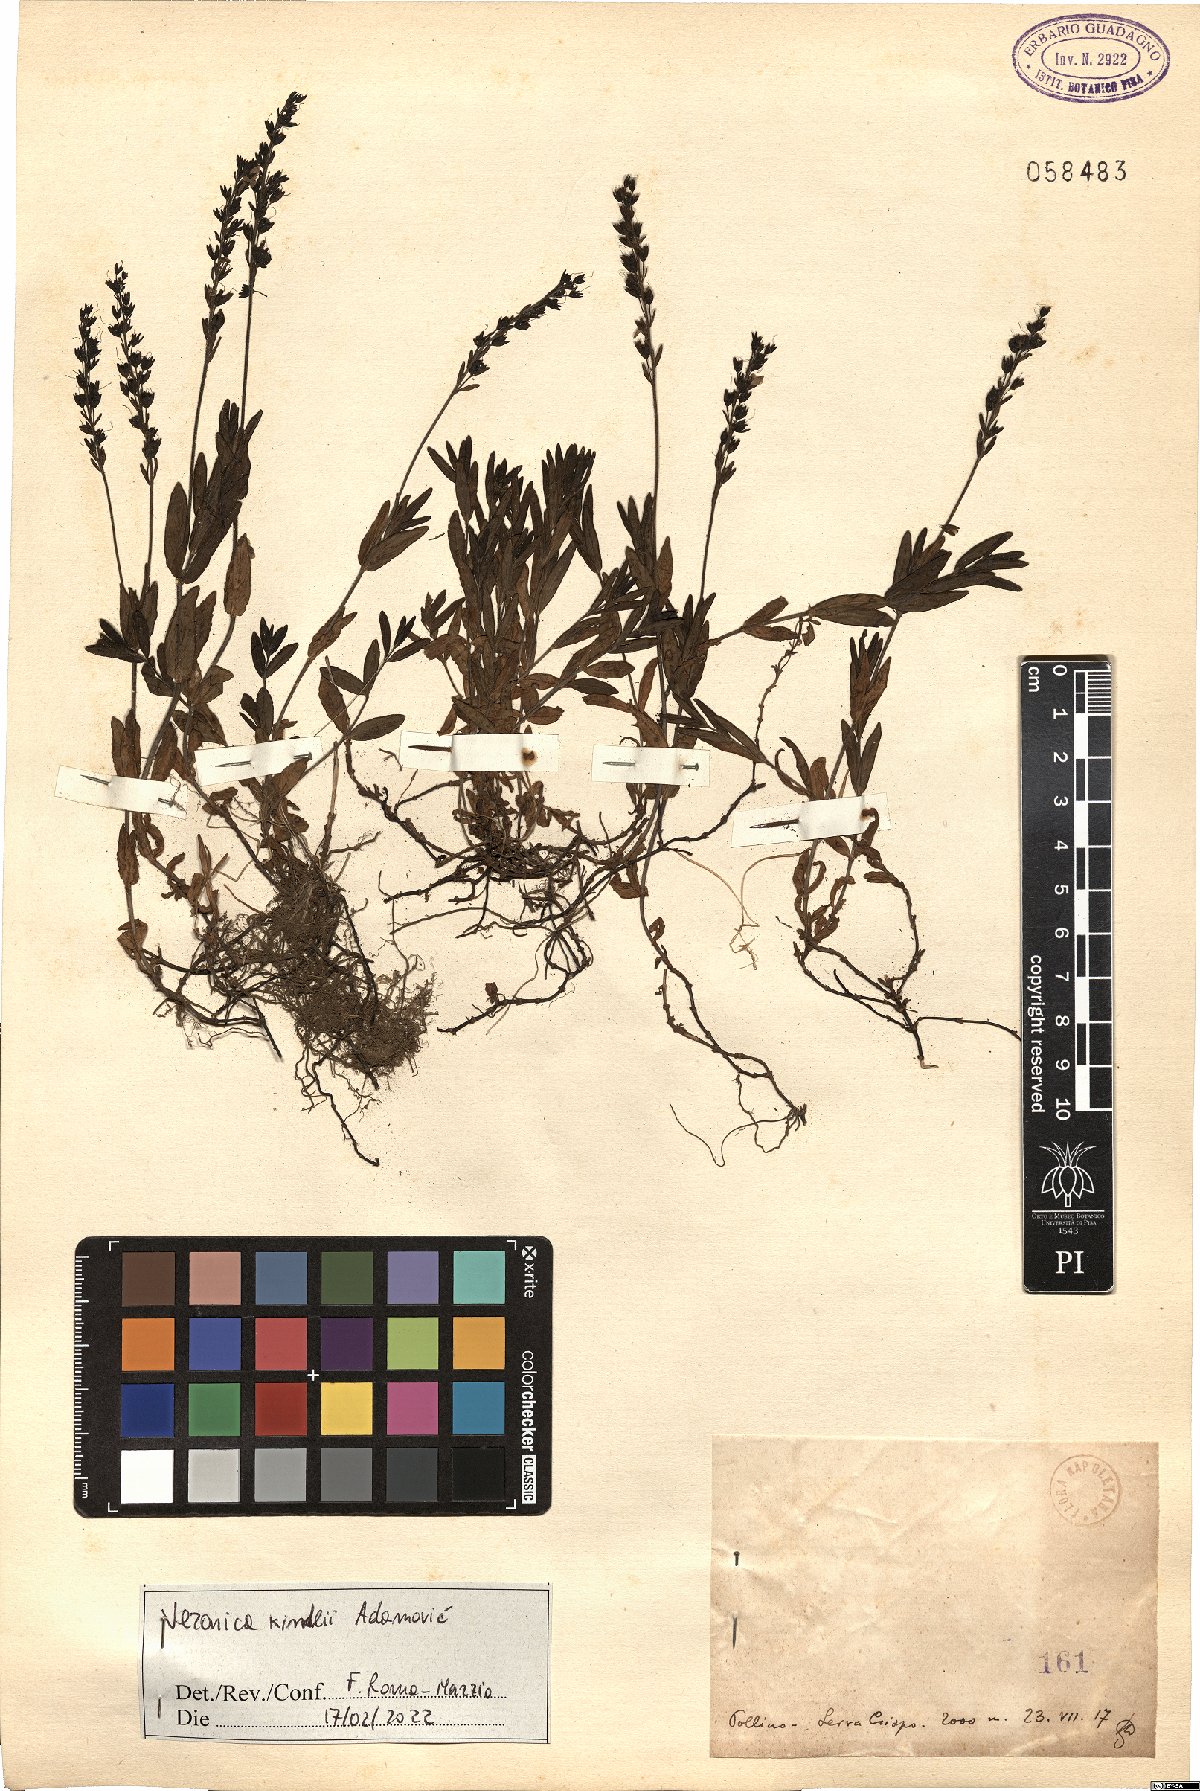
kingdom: Plantae
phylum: Tracheophyta
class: Magnoliopsida
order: Lamiales
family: Plantaginaceae
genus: Veronica
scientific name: Veronica orsiniana
